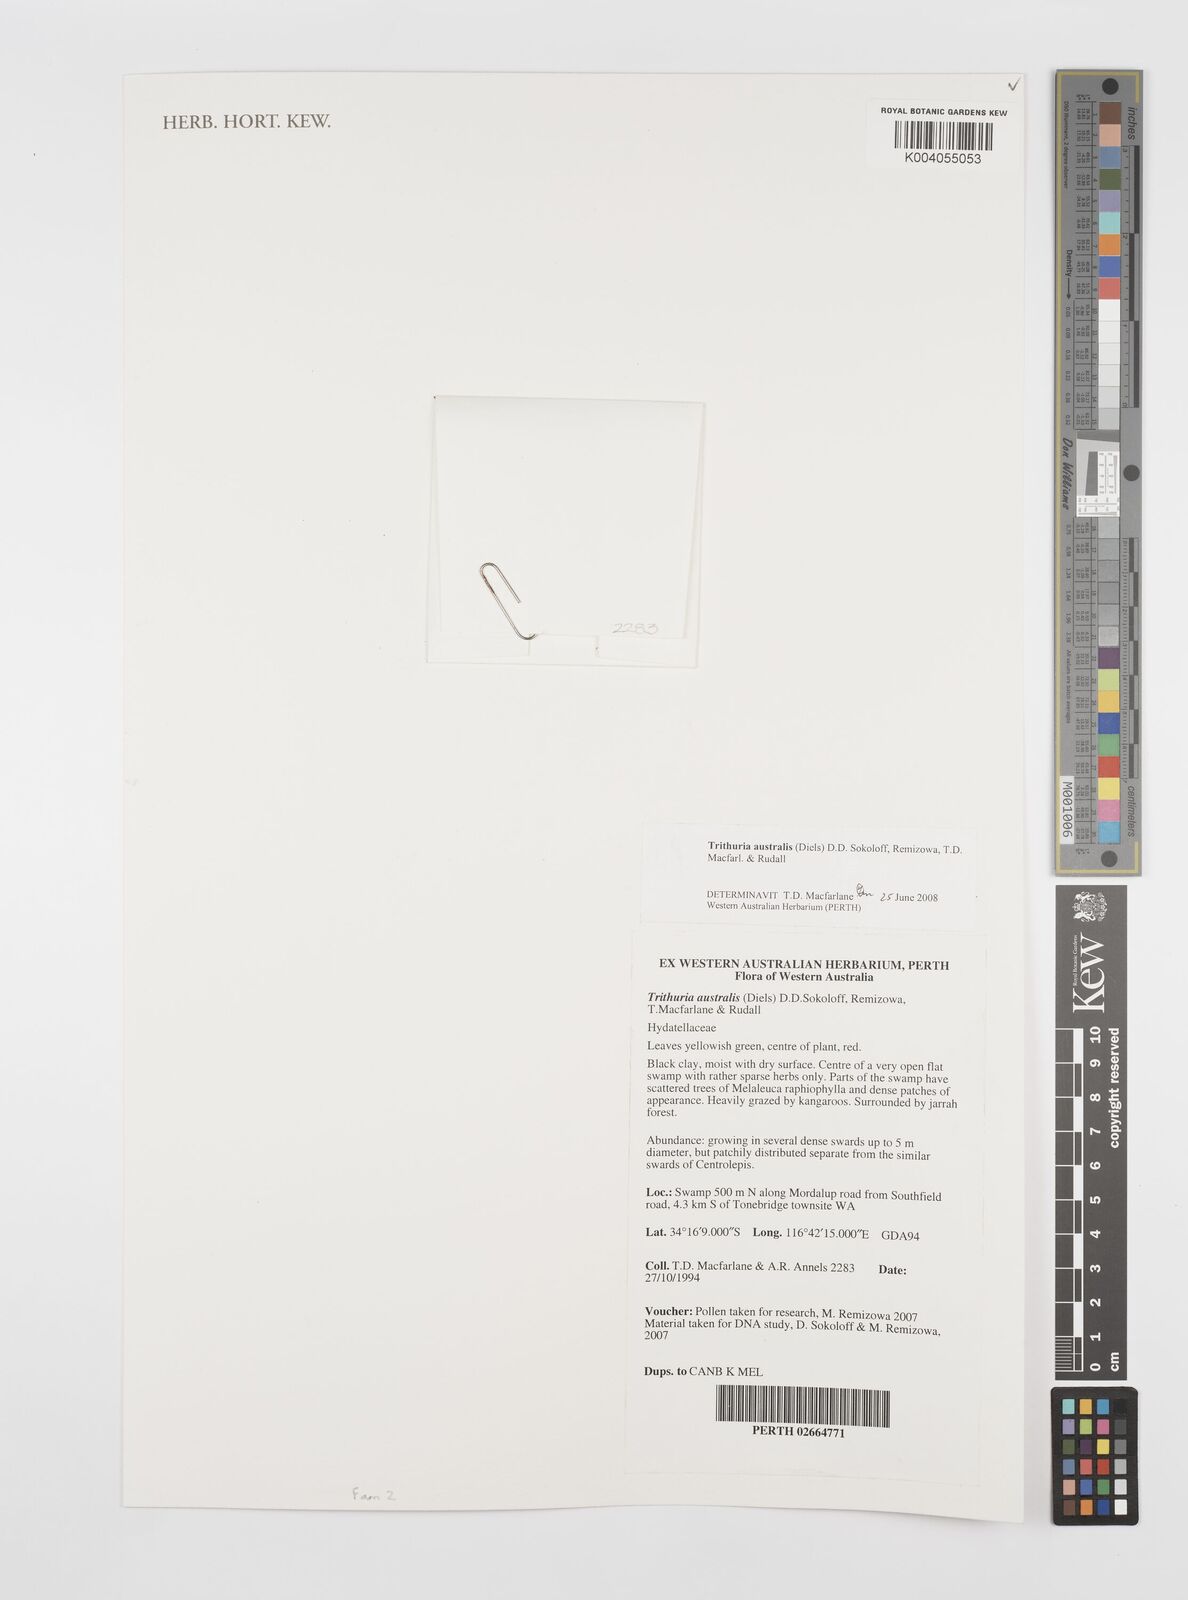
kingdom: Plantae
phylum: Tracheophyta
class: Magnoliopsida
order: Nymphaeales
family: Hydatellaceae
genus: Trithuria
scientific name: Trithuria austinensis
